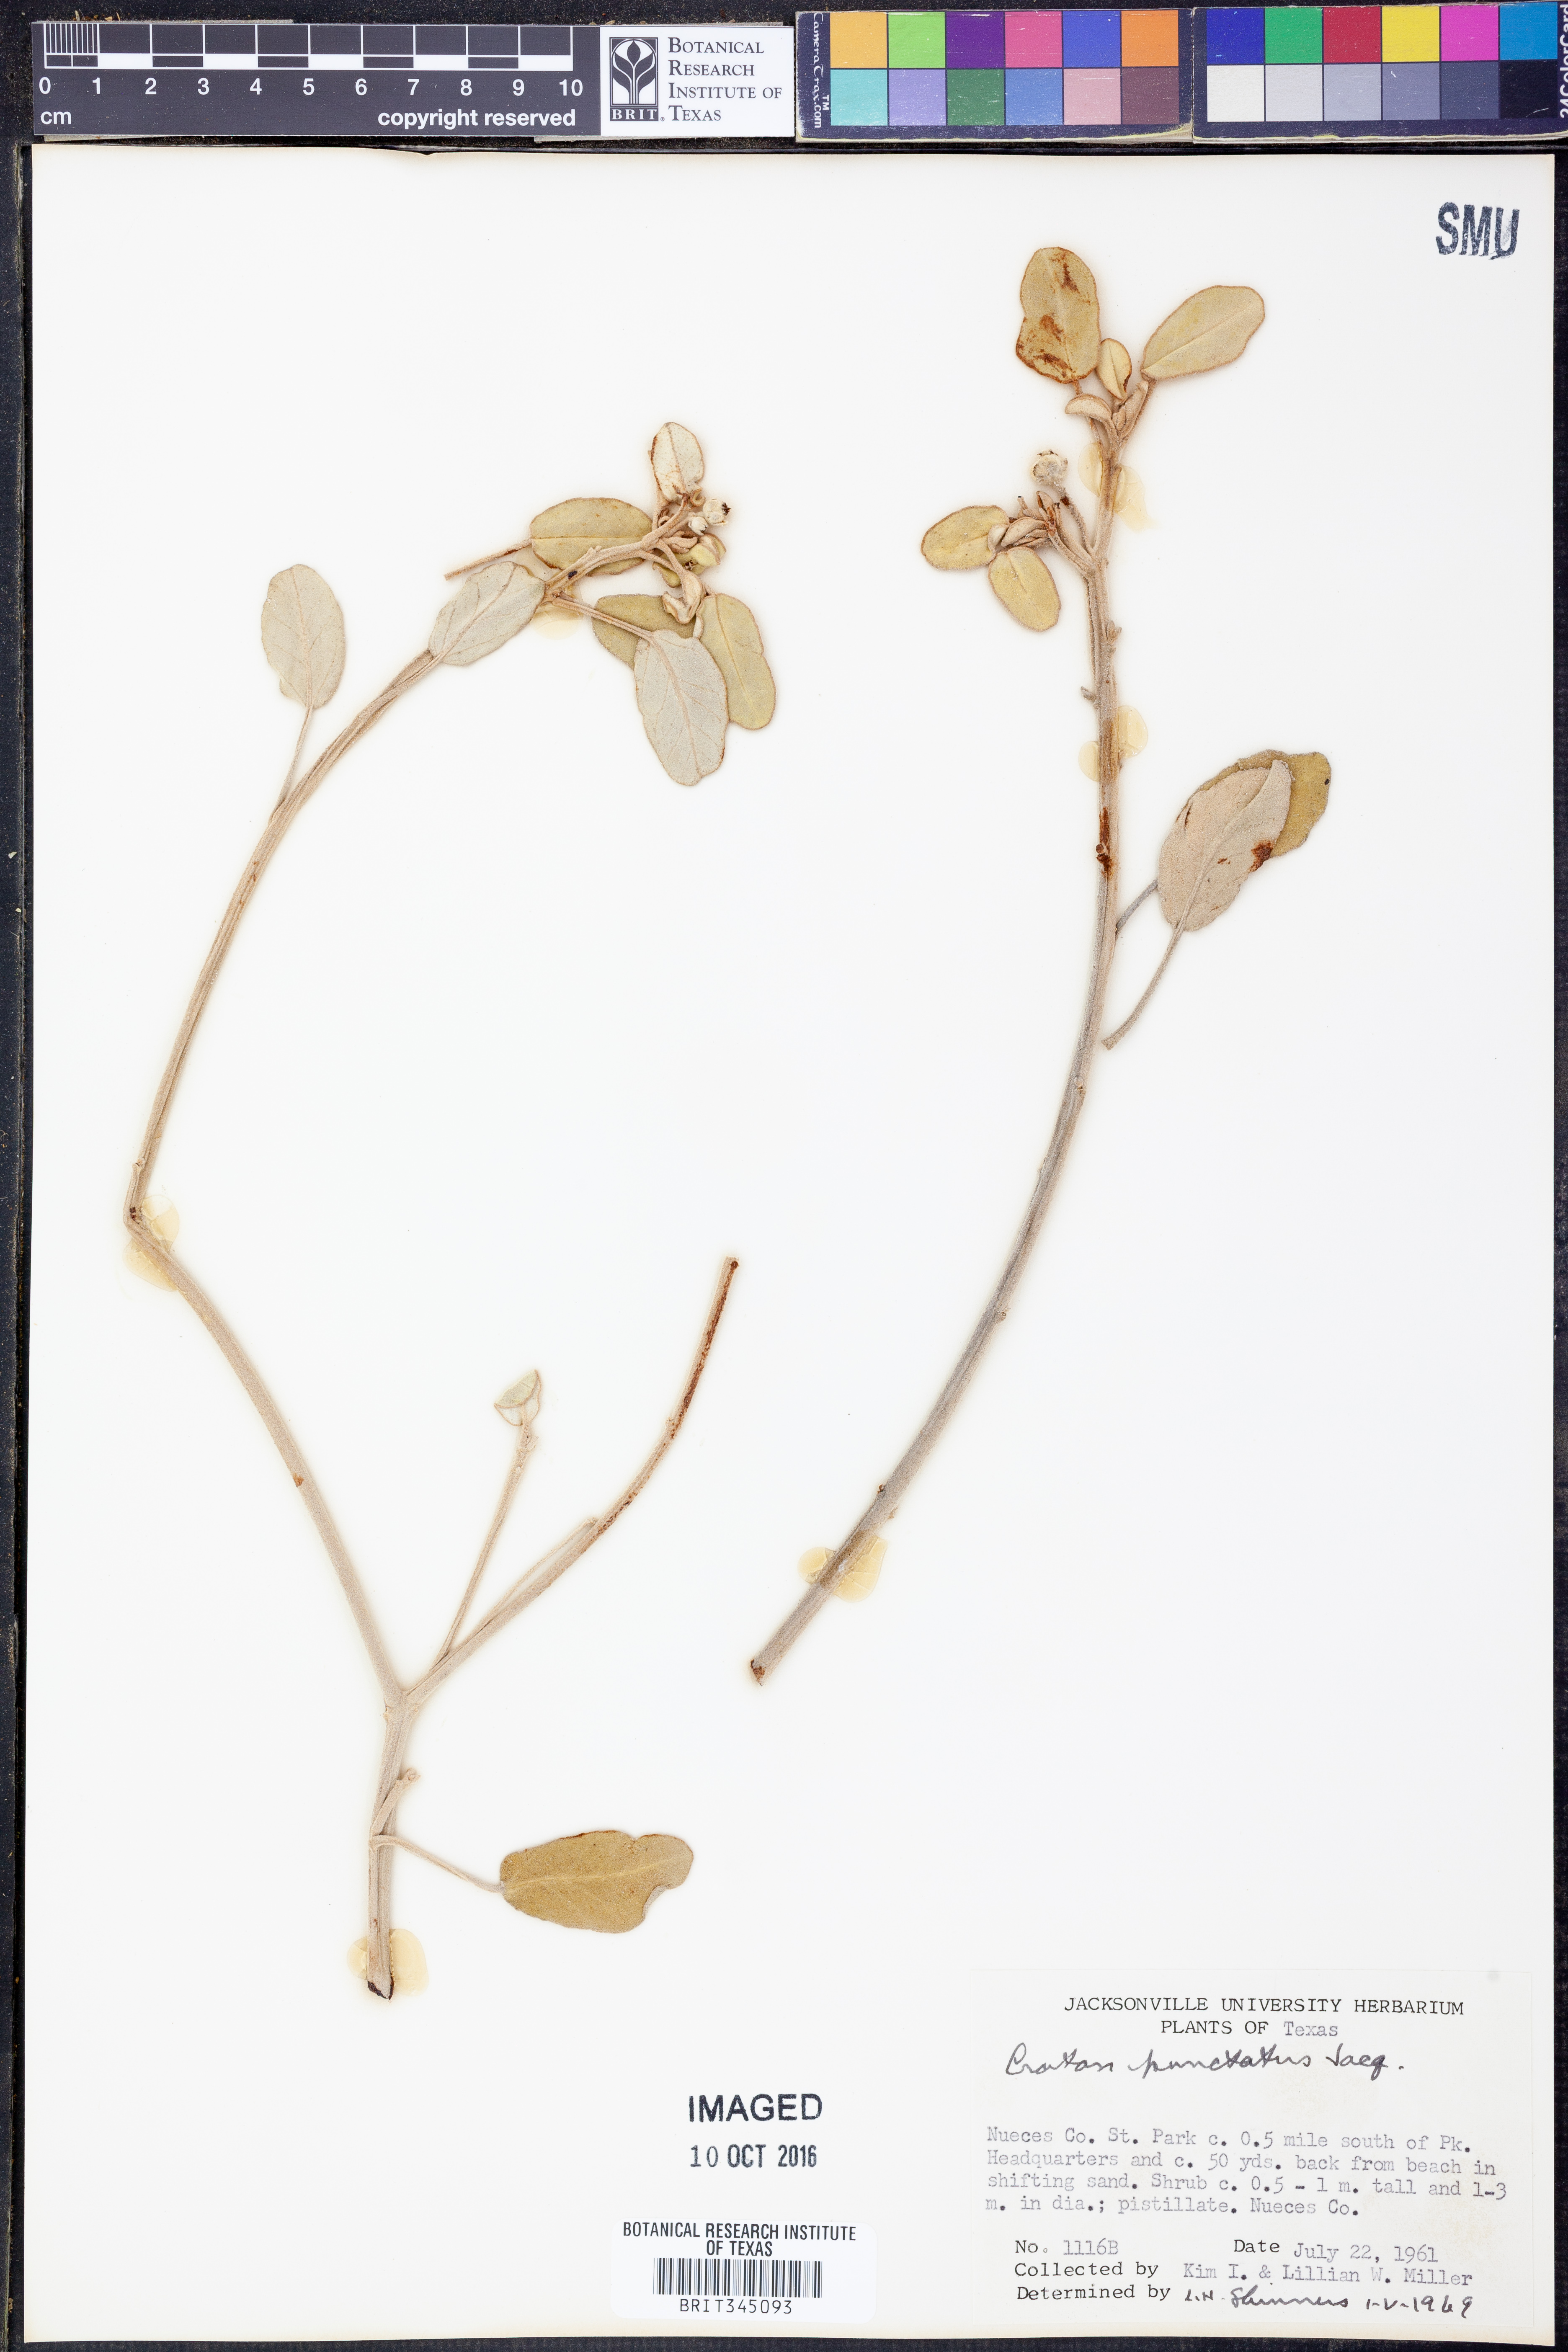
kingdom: Plantae
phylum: Tracheophyta
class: Magnoliopsida
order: Malpighiales
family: Euphorbiaceae
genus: Croton
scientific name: Croton punctatus
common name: Beach-tea
